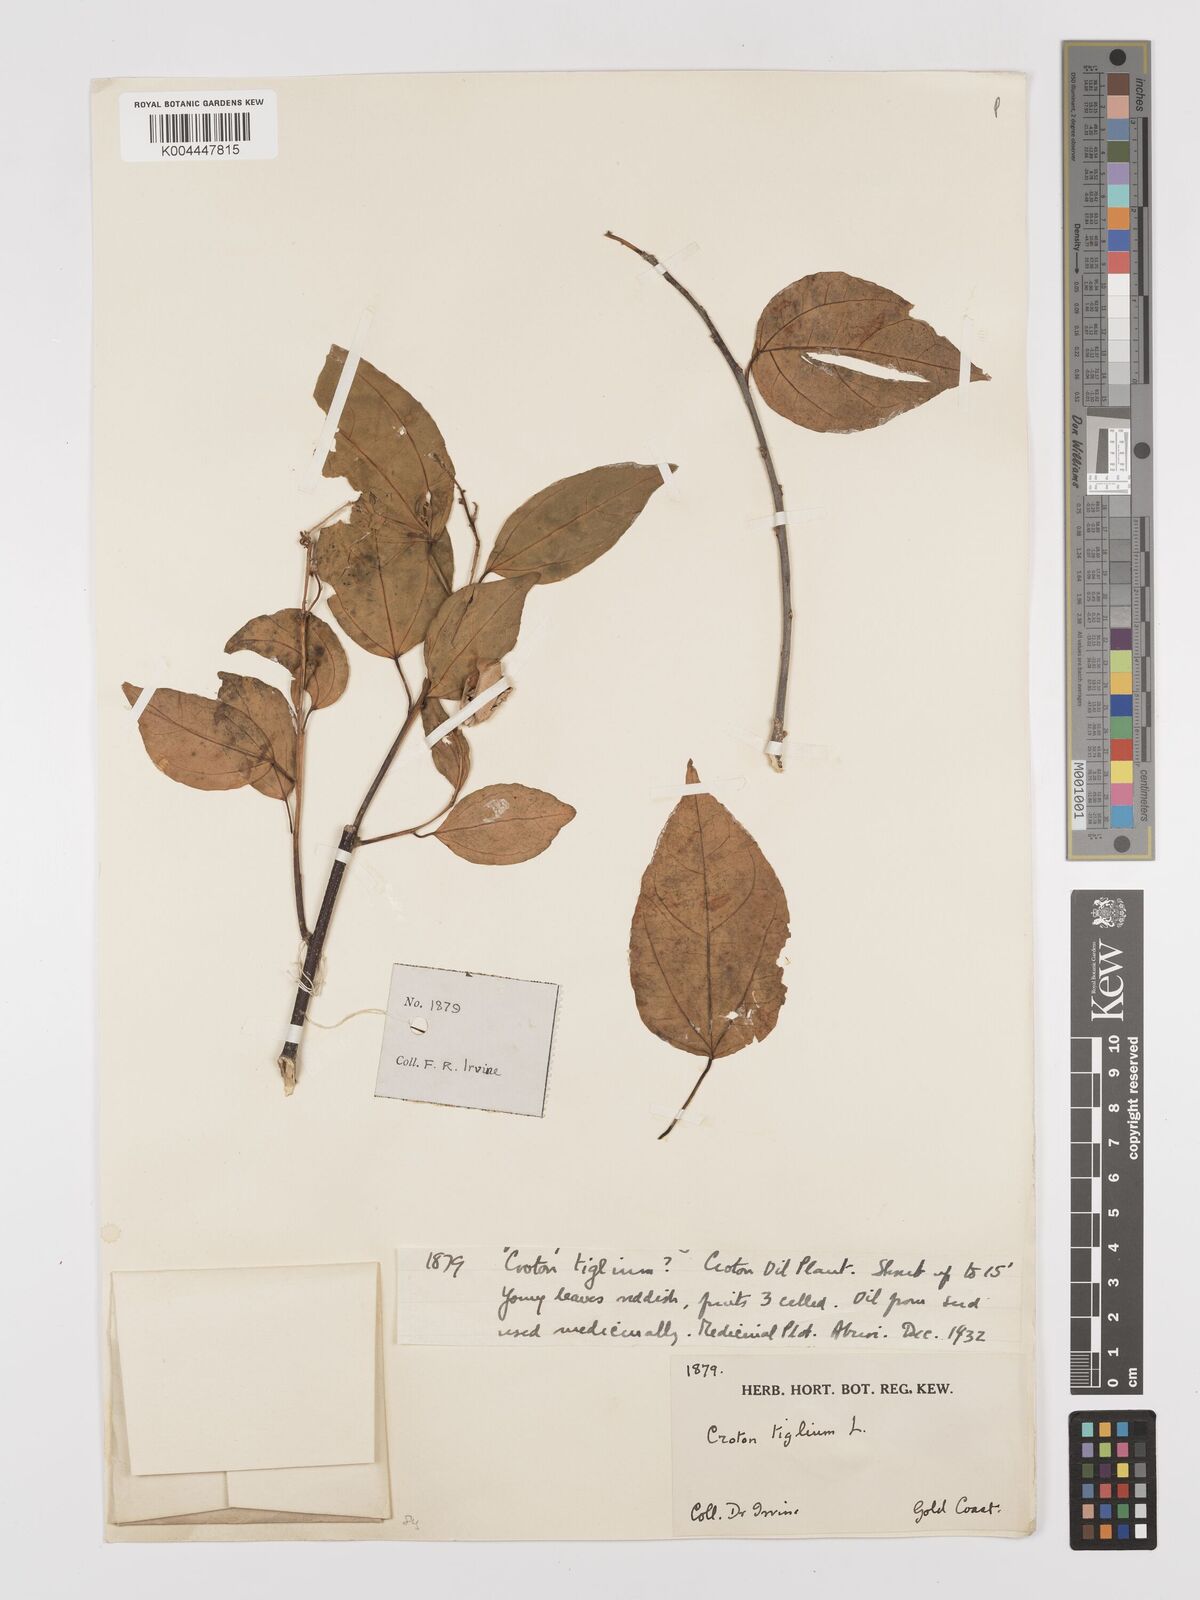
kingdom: Plantae
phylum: Tracheophyta
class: Magnoliopsida
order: Malpighiales
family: Euphorbiaceae
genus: Croton
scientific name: Croton tiglium
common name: Purging croton
